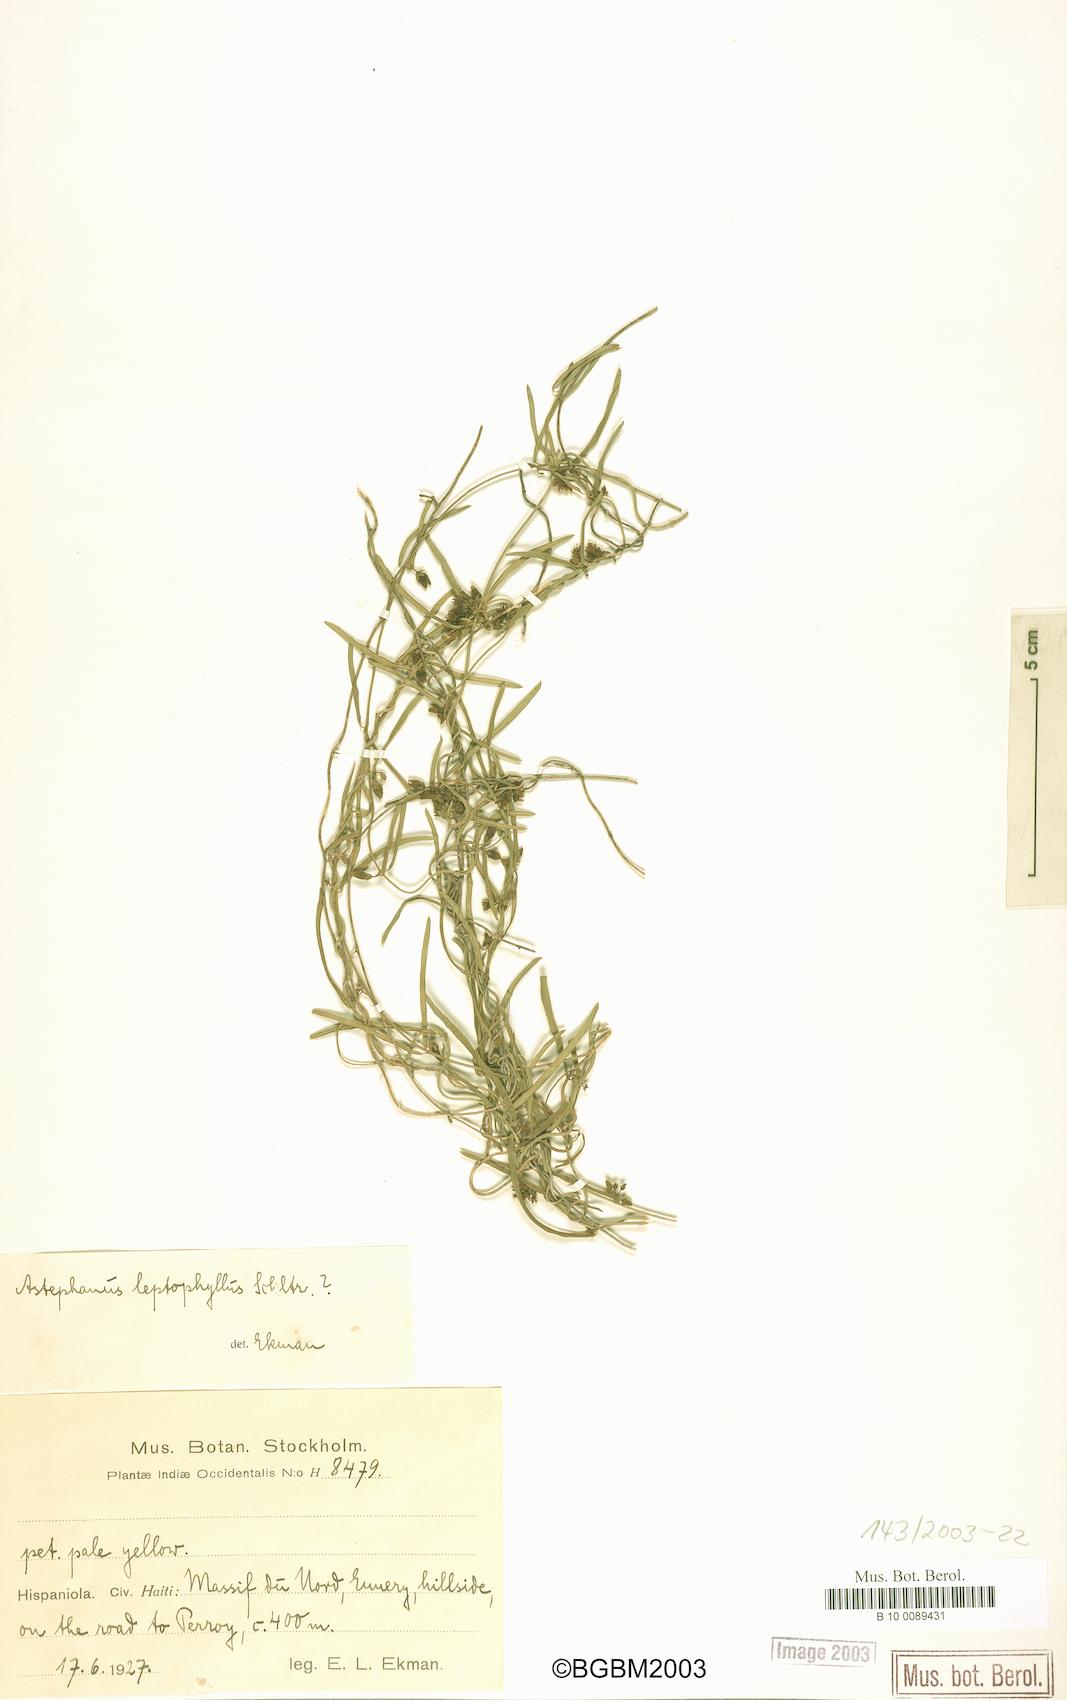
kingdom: Plantae
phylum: Tracheophyta
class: Magnoliopsida
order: Gentianales
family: Apocynaceae
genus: Metastelma
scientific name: Metastelma leptophyllum
